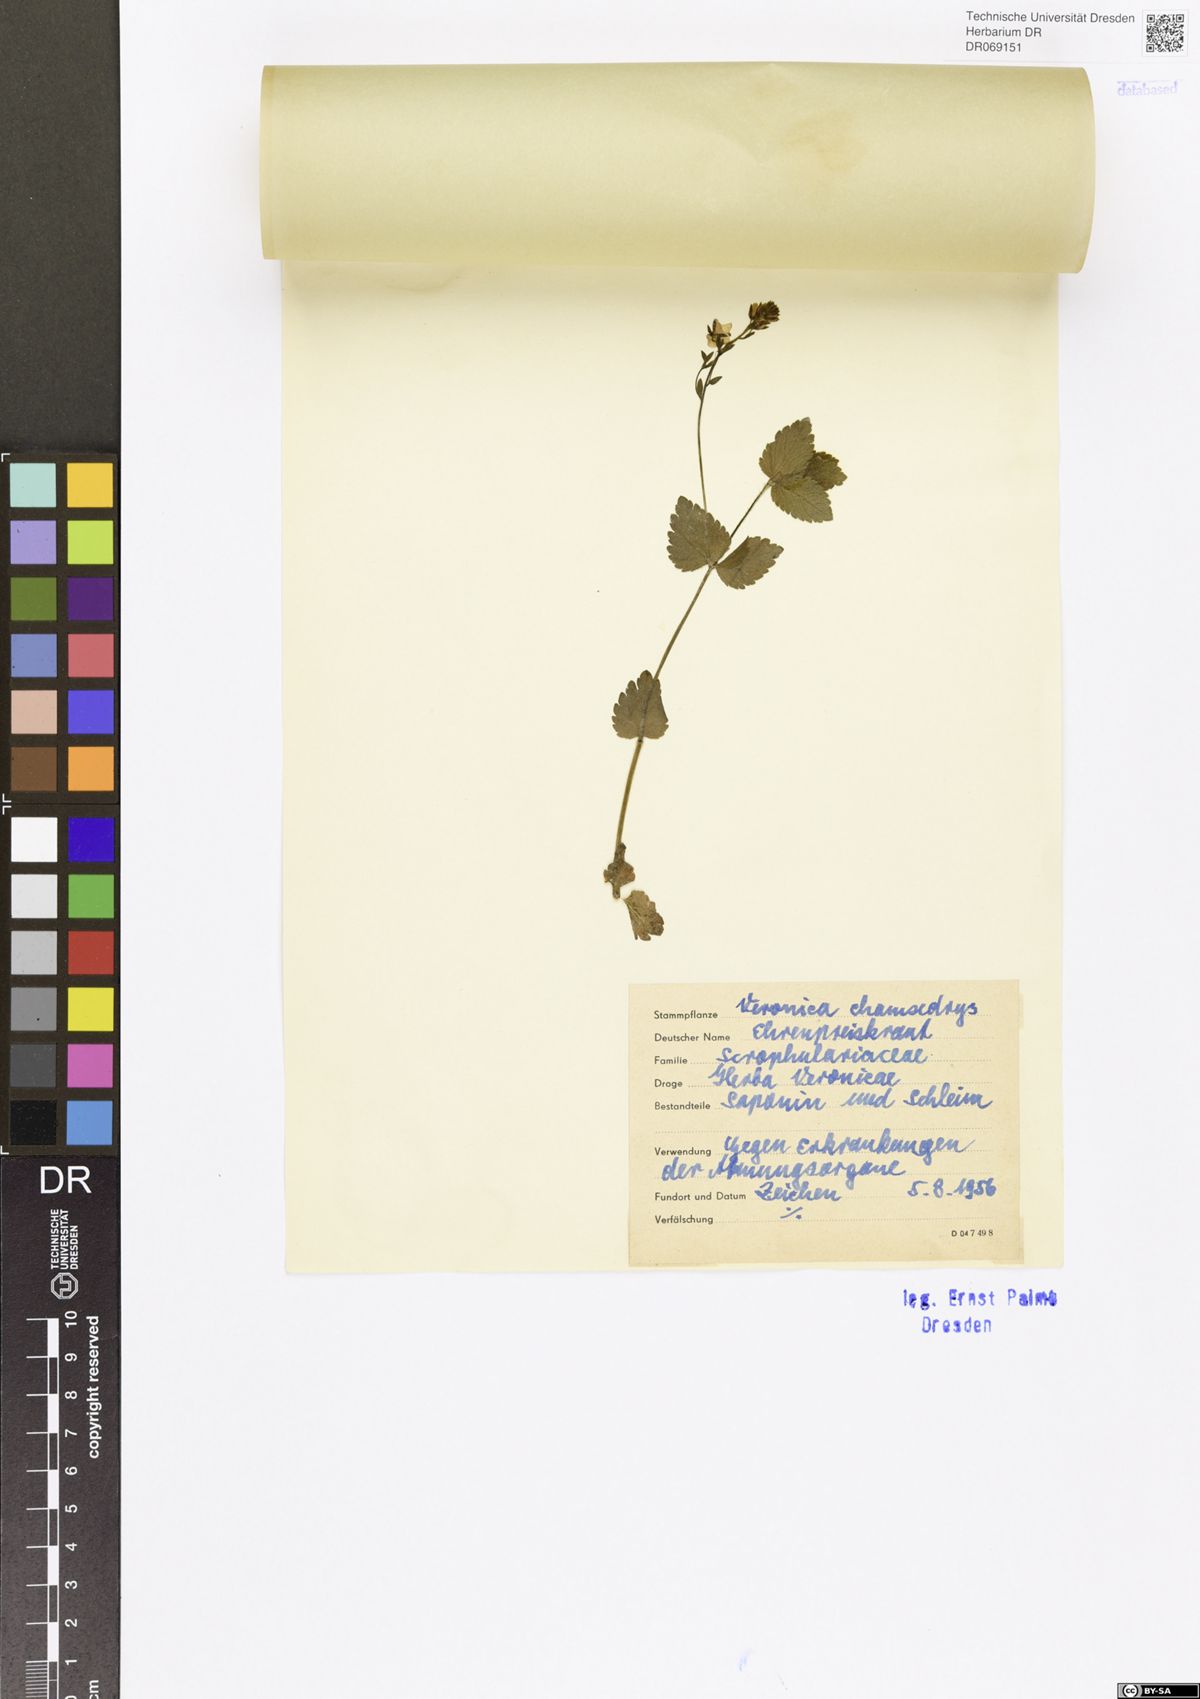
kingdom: Plantae
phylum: Tracheophyta
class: Magnoliopsida
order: Lamiales
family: Plantaginaceae
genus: Veronica
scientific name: Veronica chamaedrys
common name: Germander speedwell
